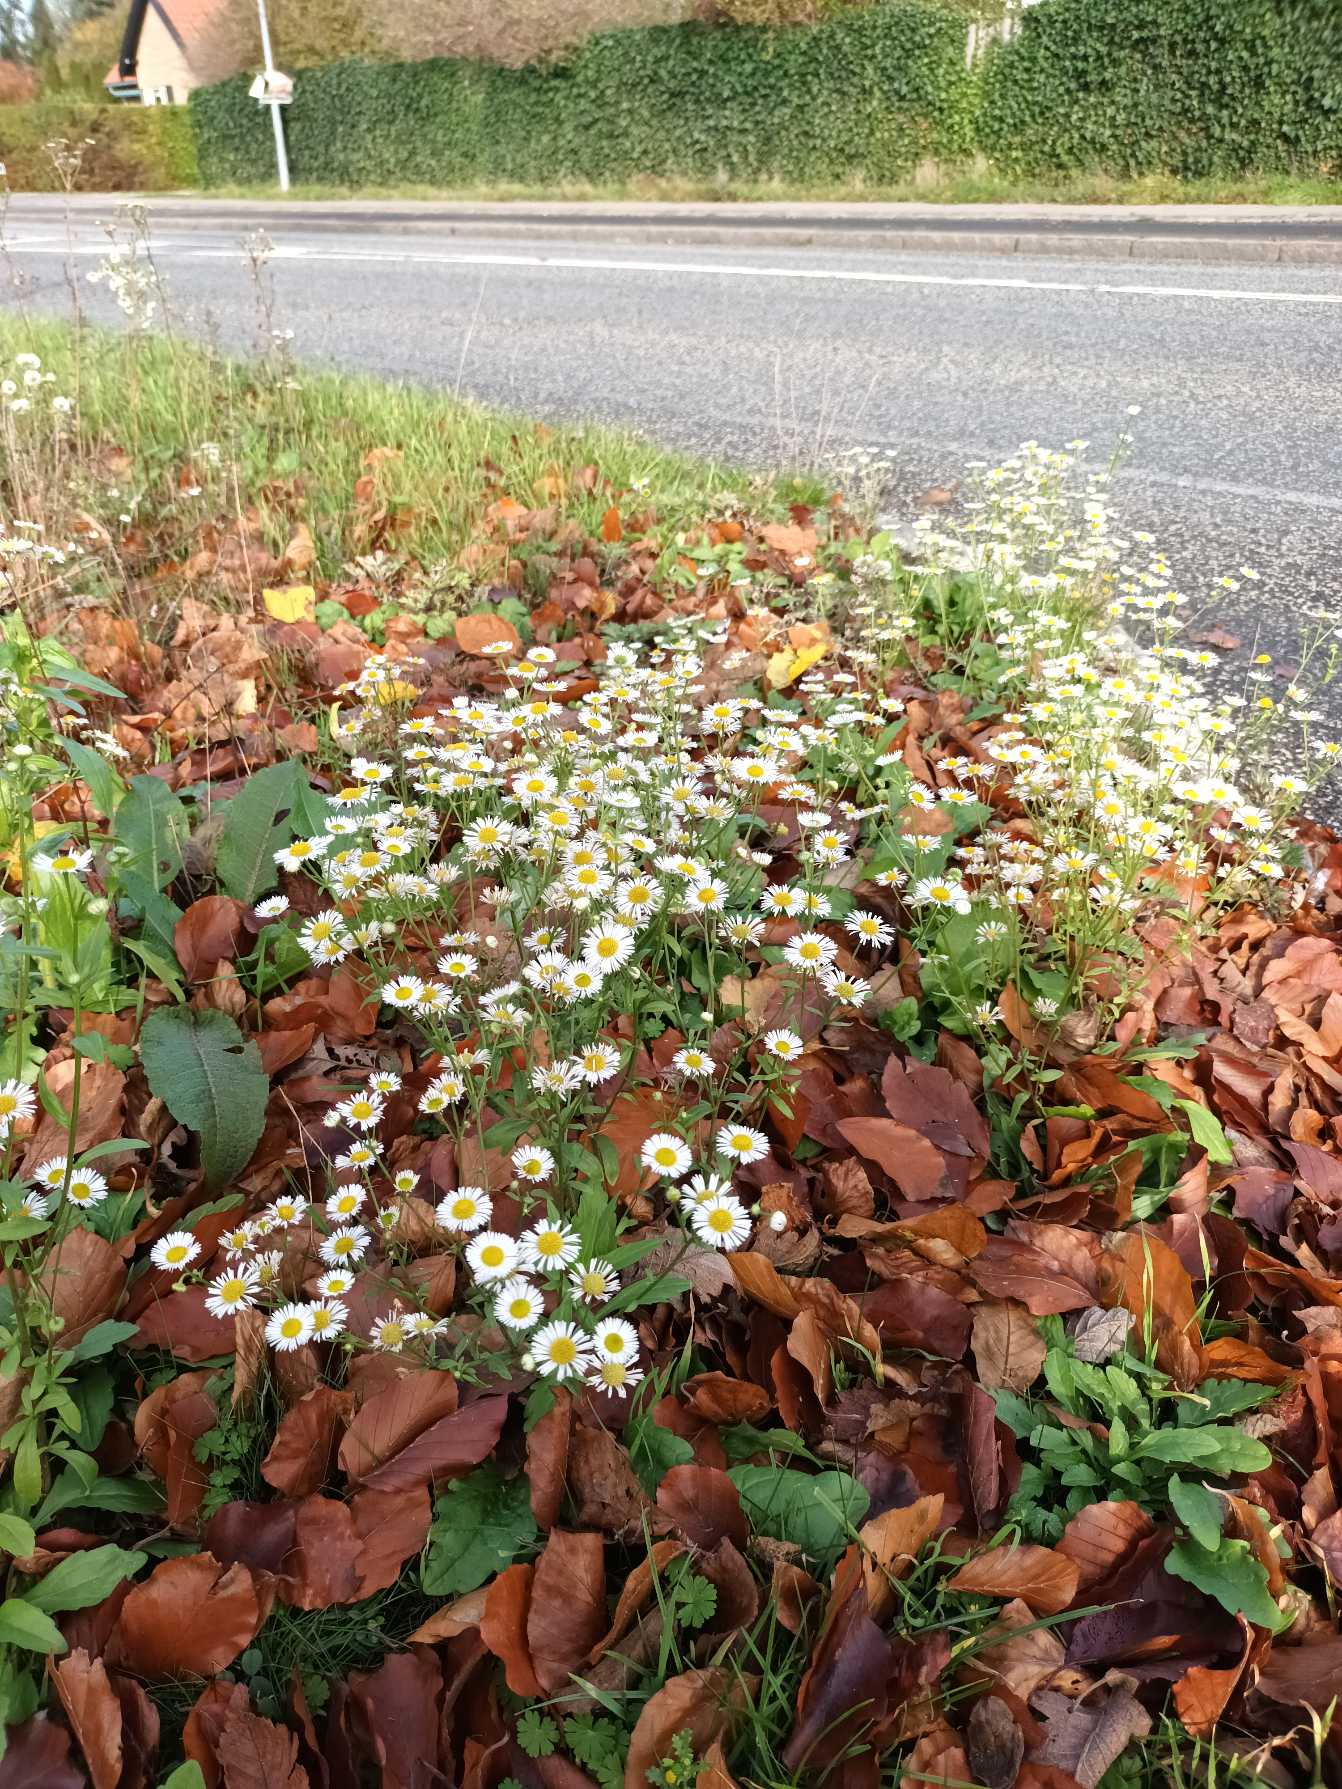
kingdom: Plantae
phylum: Tracheophyta
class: Magnoliopsida
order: Asterales
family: Asteraceae
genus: Erigeron
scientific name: Erigeron annuus
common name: Smalstråle
